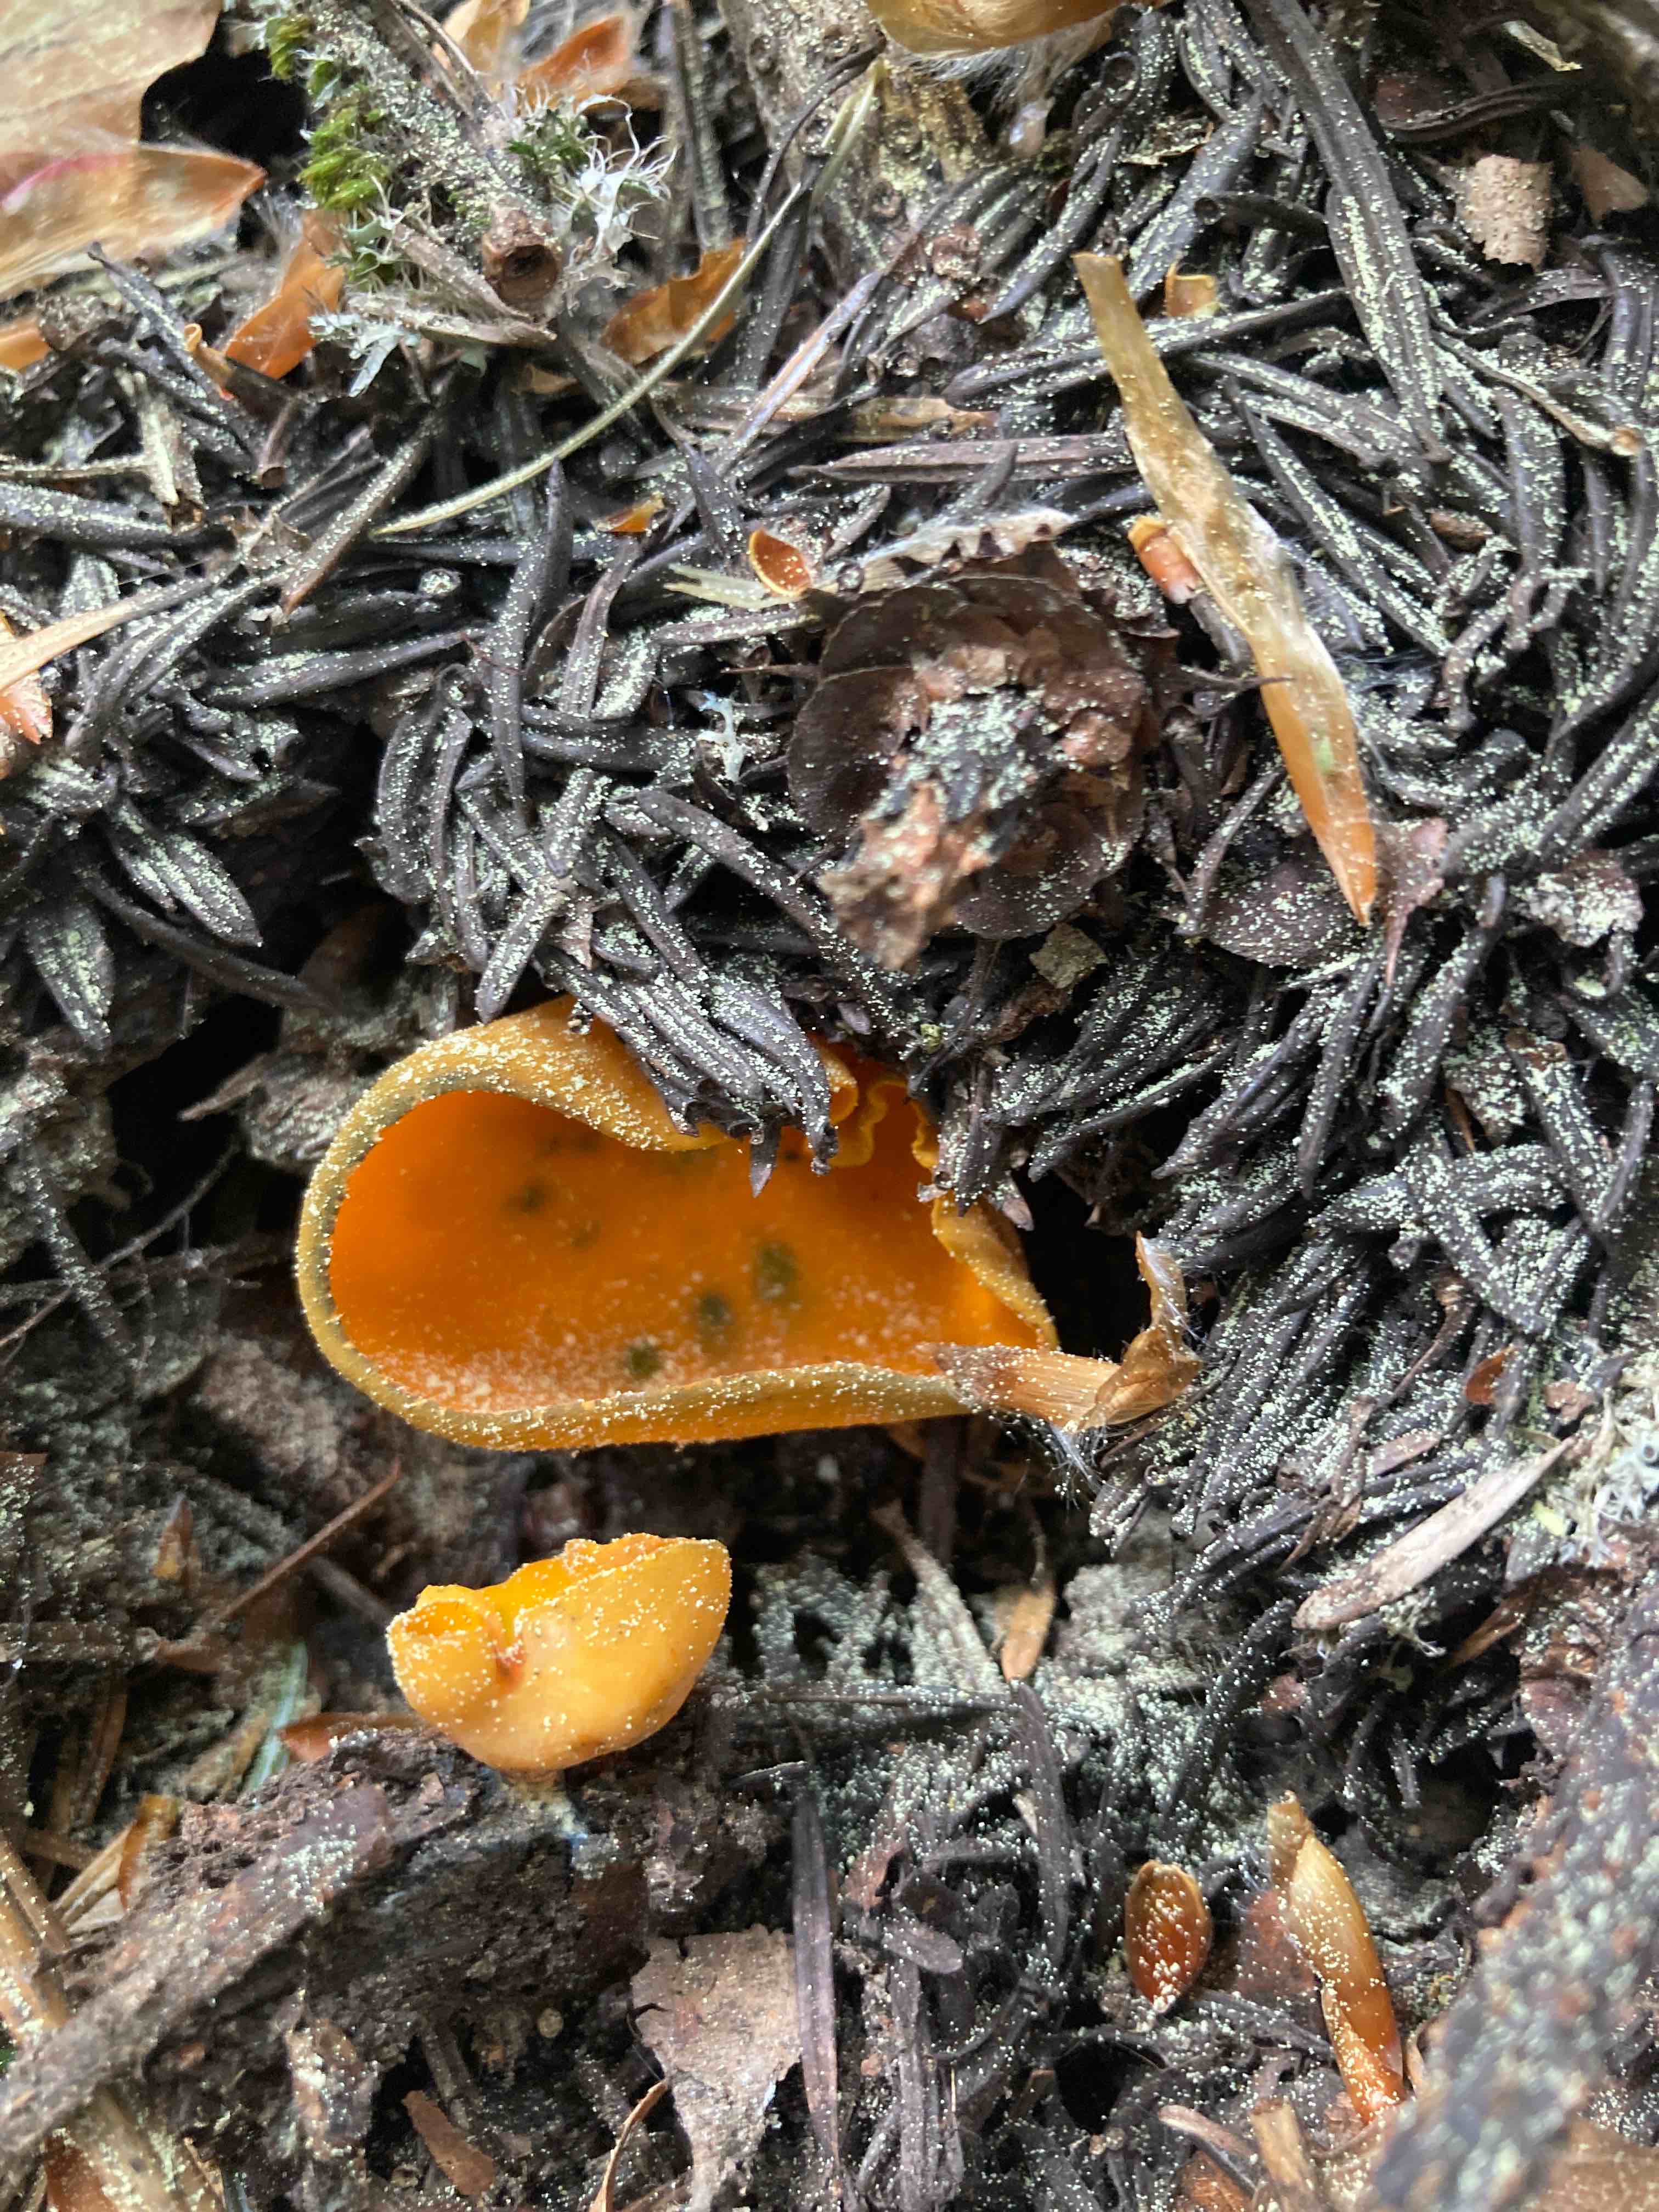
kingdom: Fungi
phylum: Ascomycota
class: Pezizomycetes
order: Pezizales
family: Caloscyphaceae
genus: Caloscypha
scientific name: Caloscypha fulgens
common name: jadebæger
